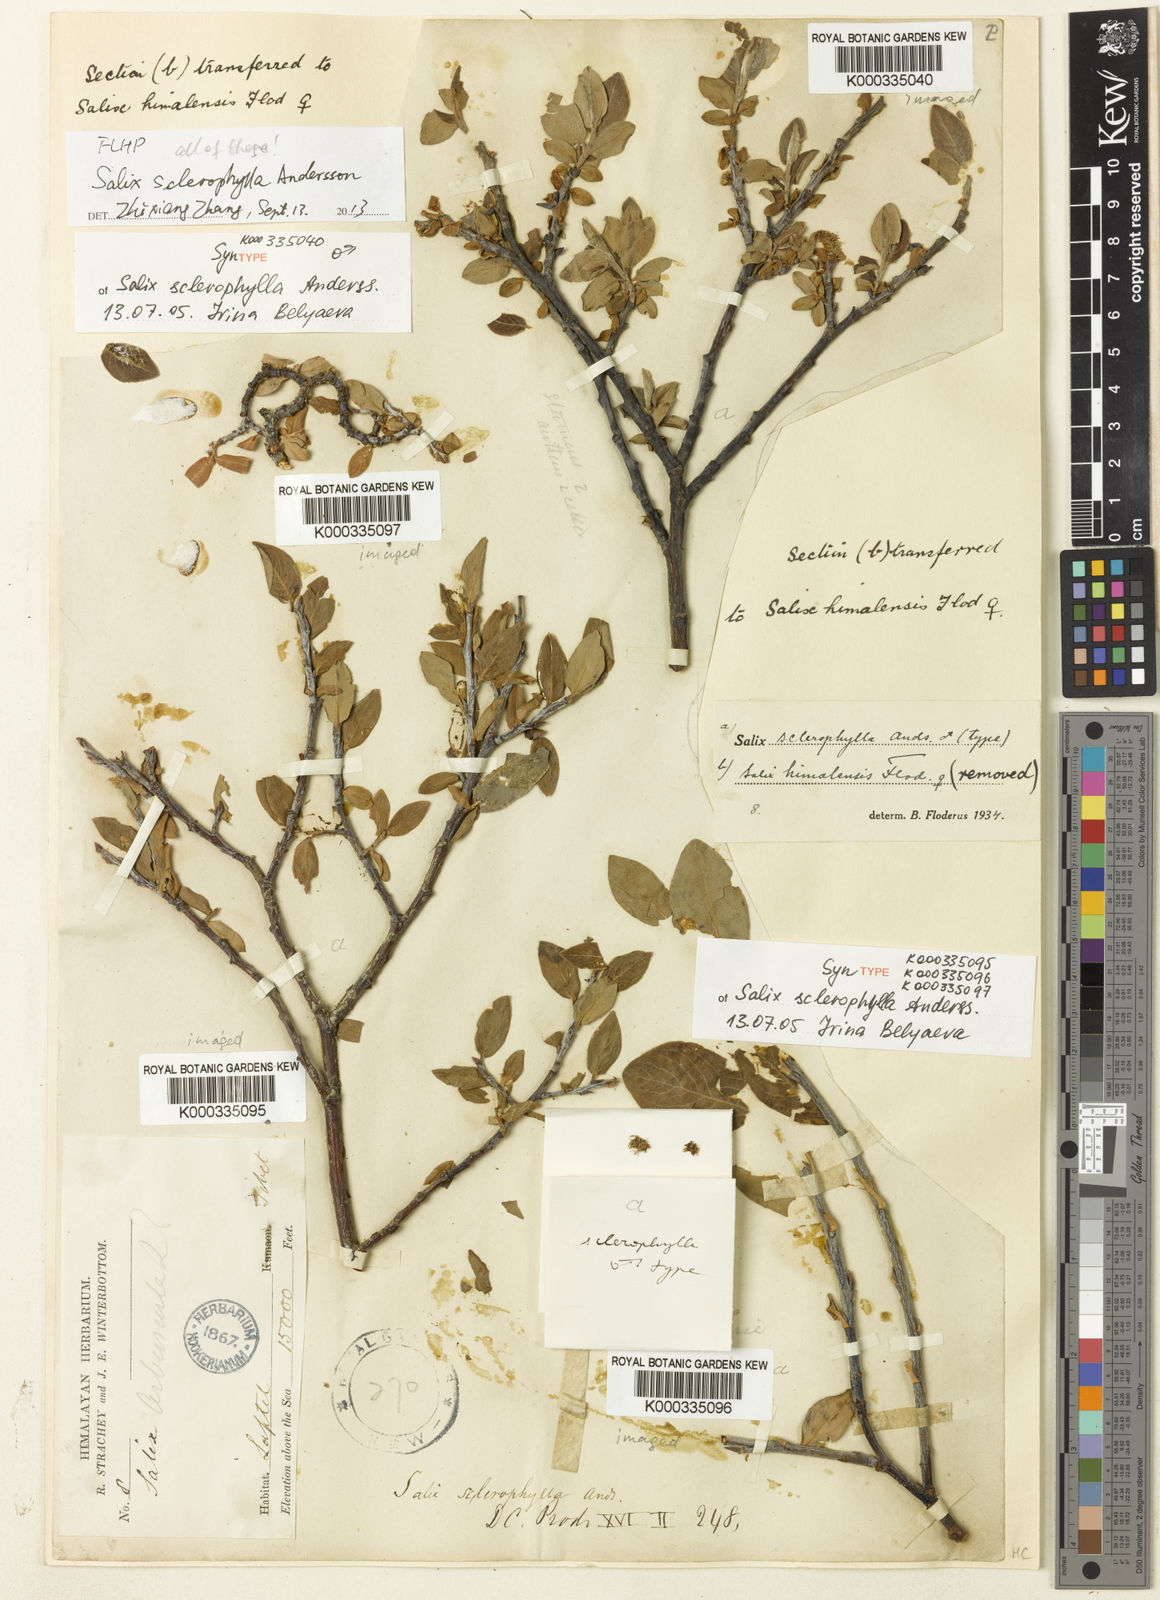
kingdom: Plantae
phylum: Tracheophyta
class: Magnoliopsida
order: Malpighiales
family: Salicaceae
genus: Salix
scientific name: Salix sclerophylla
